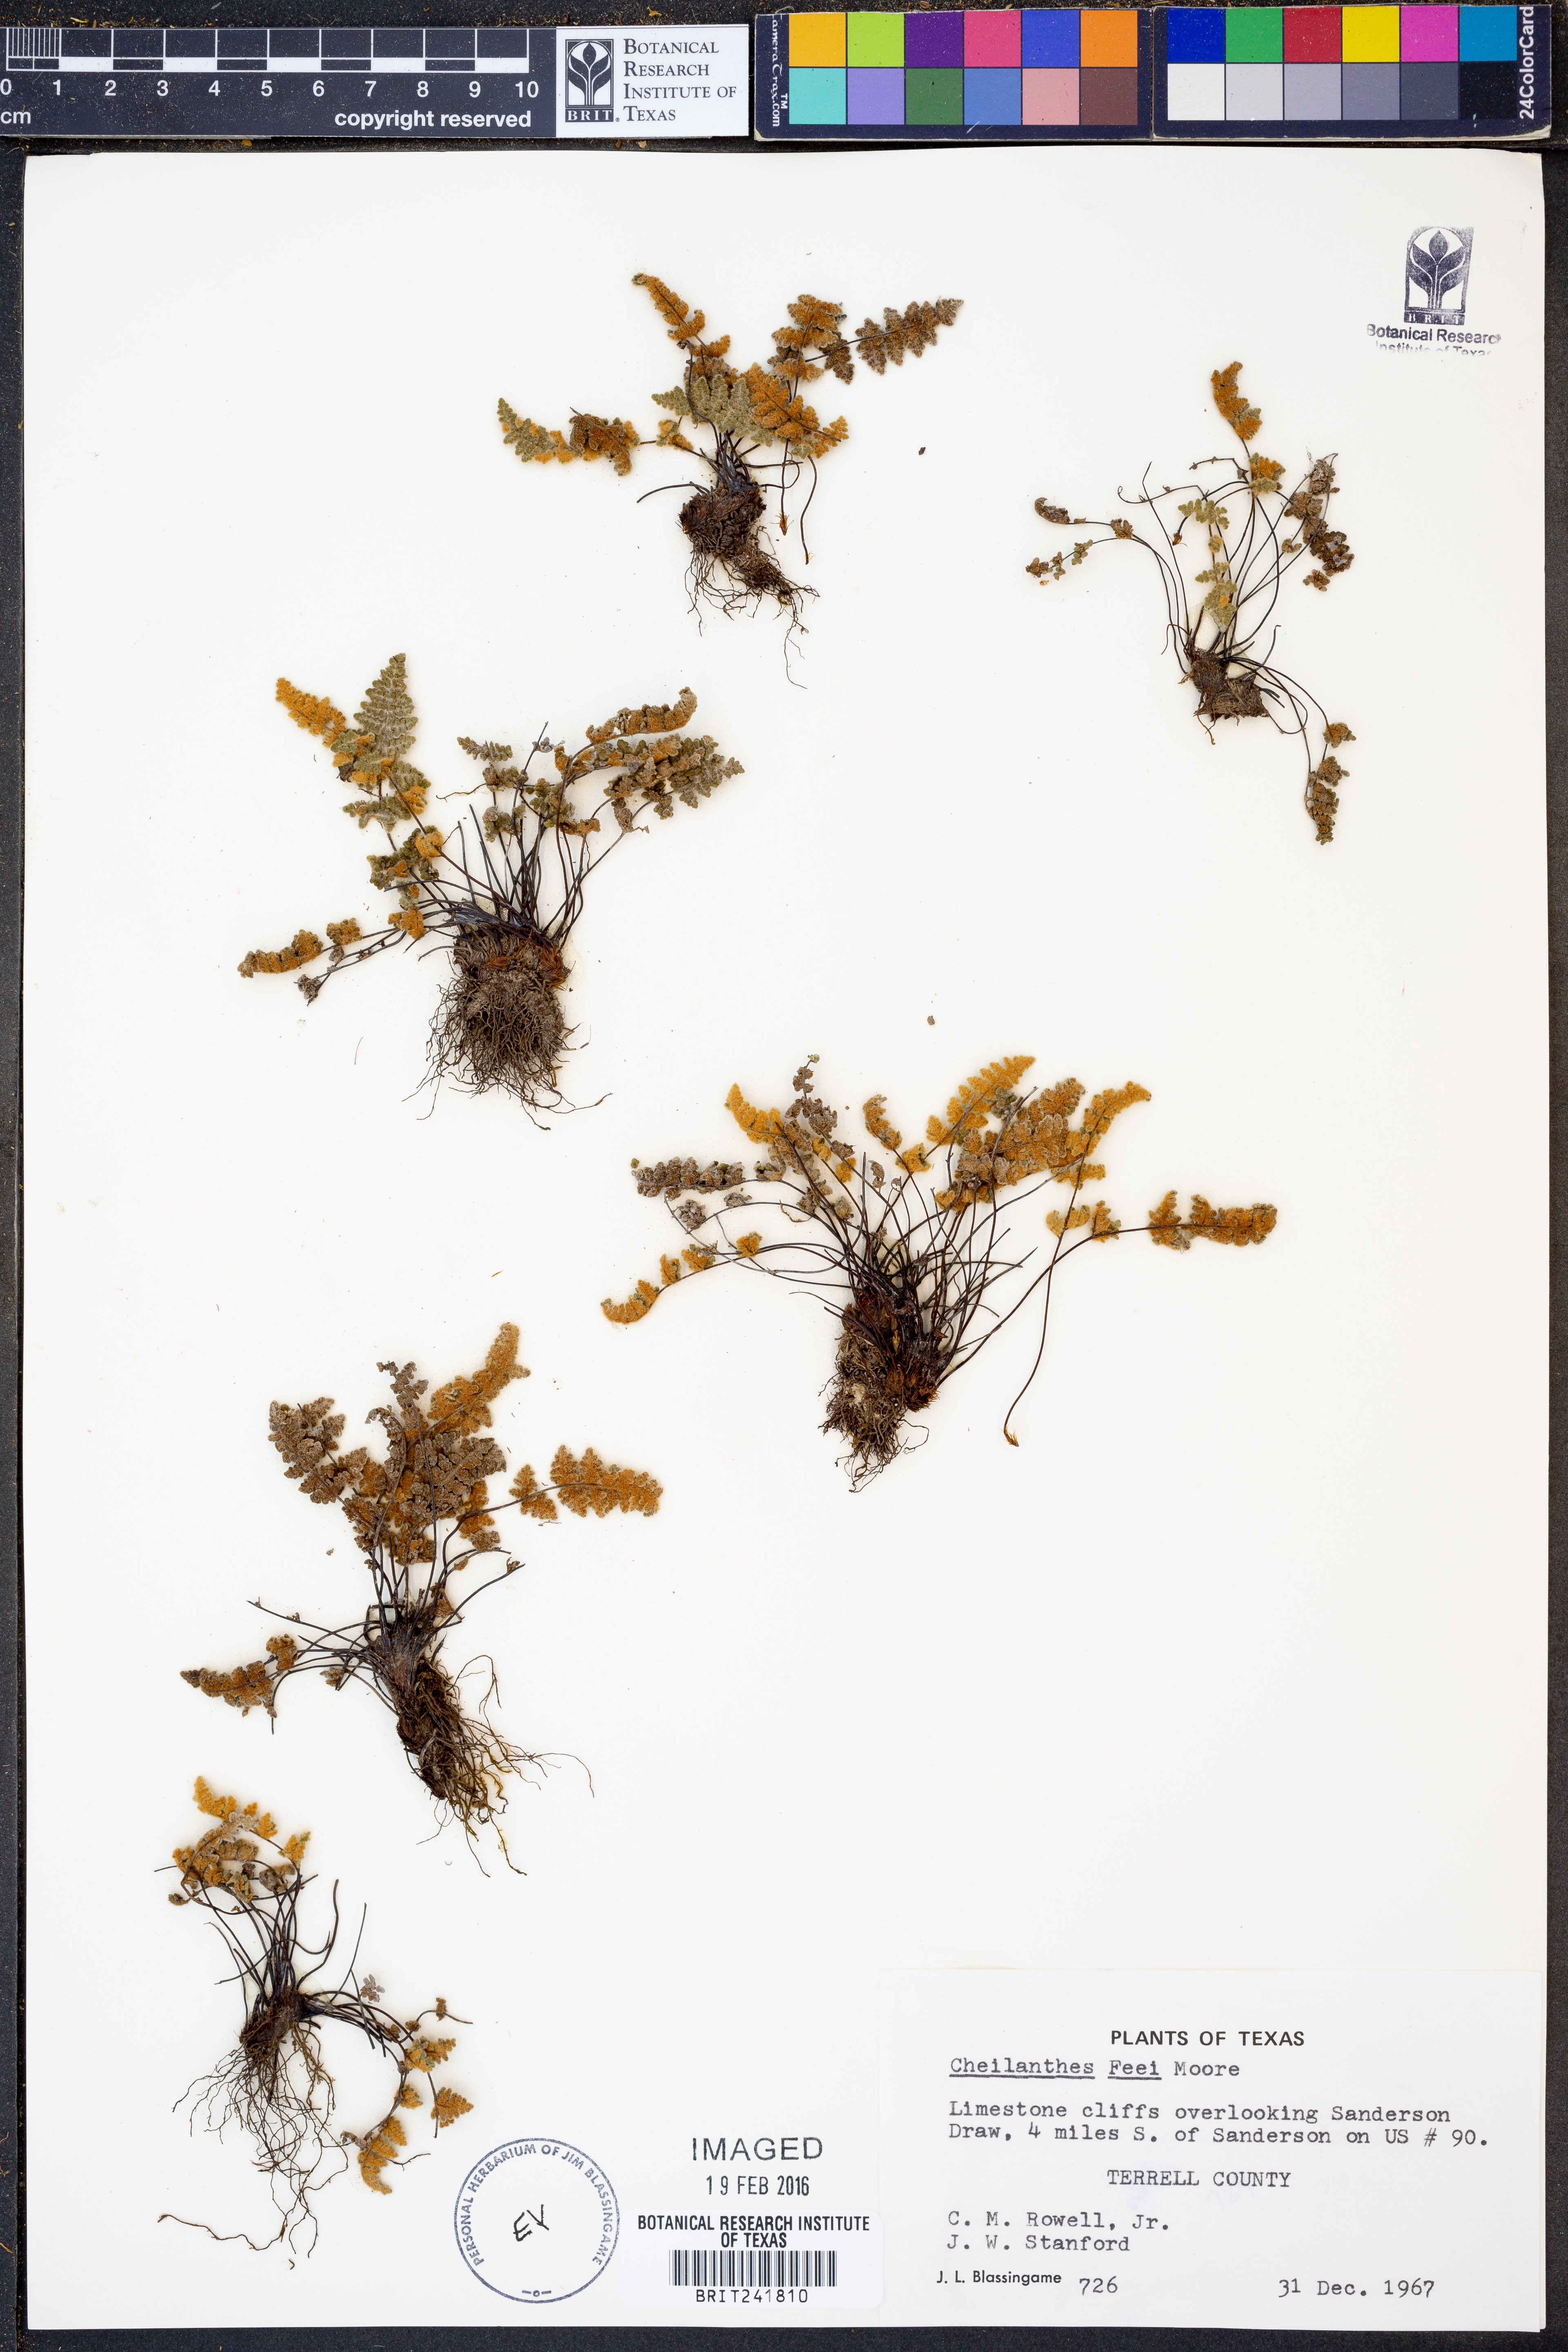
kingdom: Plantae
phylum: Tracheophyta
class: Polypodiopsida
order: Polypodiales
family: Pteridaceae
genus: Myriopteris
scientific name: Myriopteris gracilis
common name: Fee's lip fern
